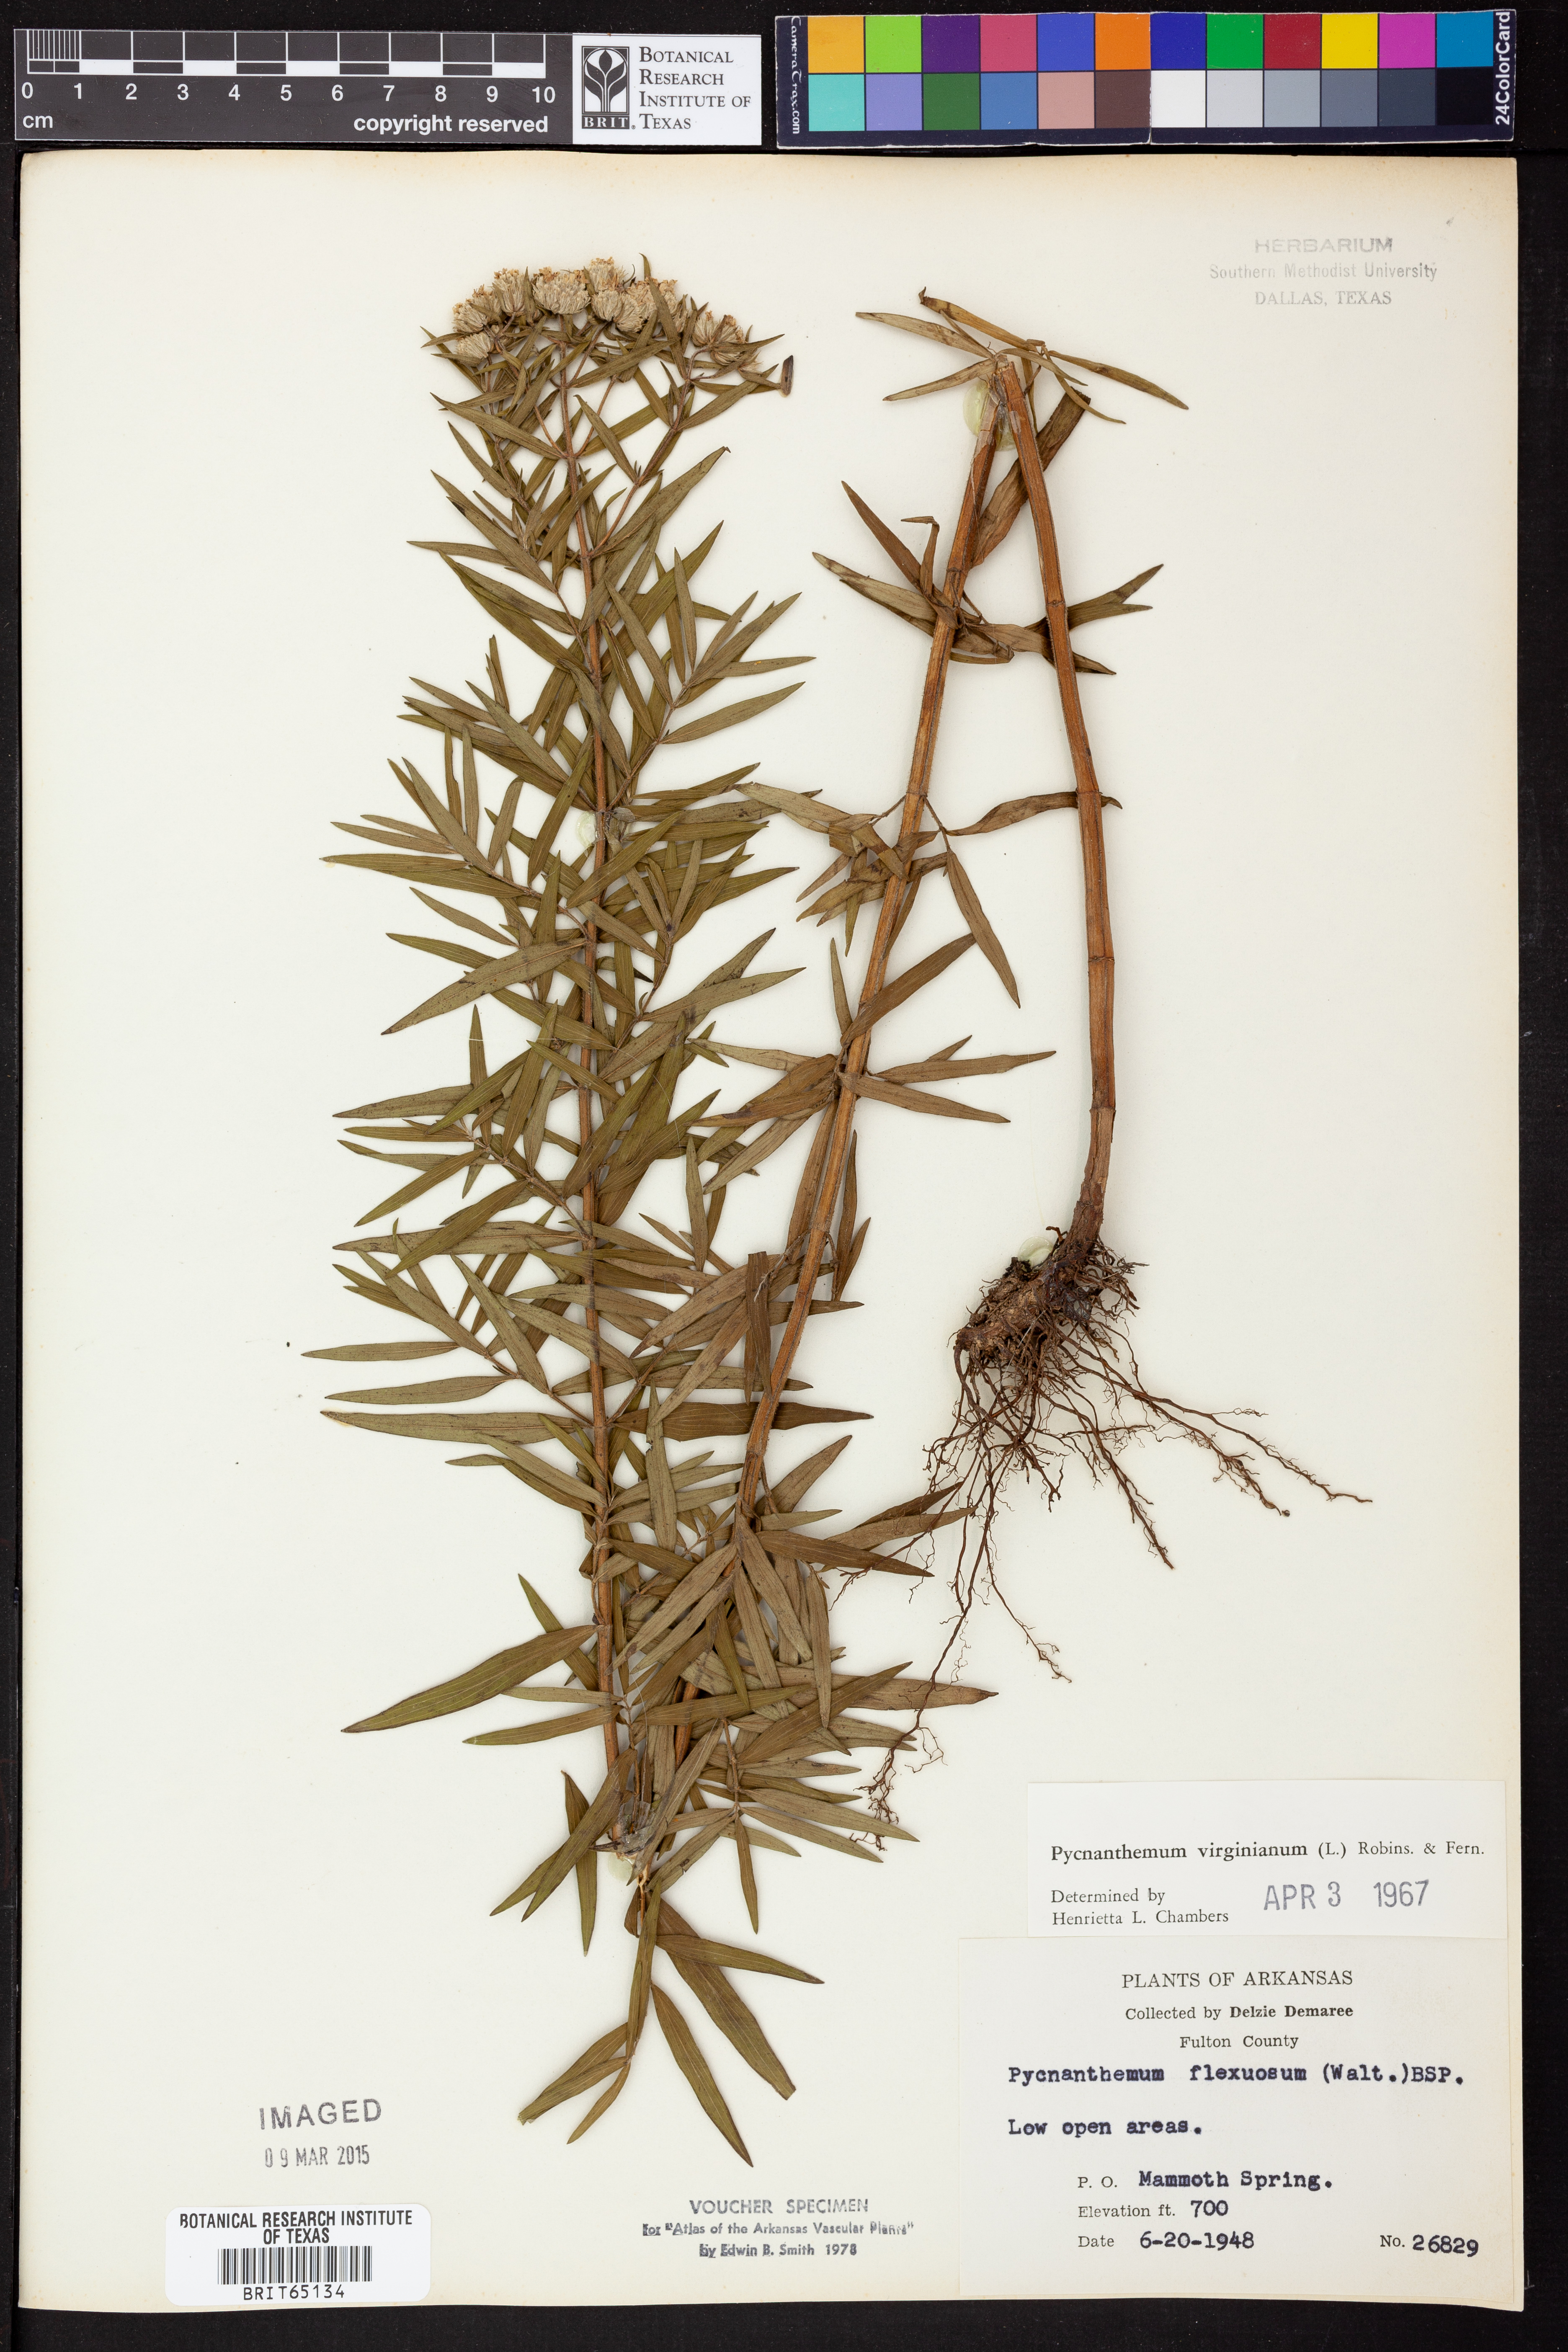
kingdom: Plantae
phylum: Tracheophyta
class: Magnoliopsida
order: Lamiales
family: Lamiaceae
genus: Pycnanthemum
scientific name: Pycnanthemum virginianum
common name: Virginia mountain-mint
